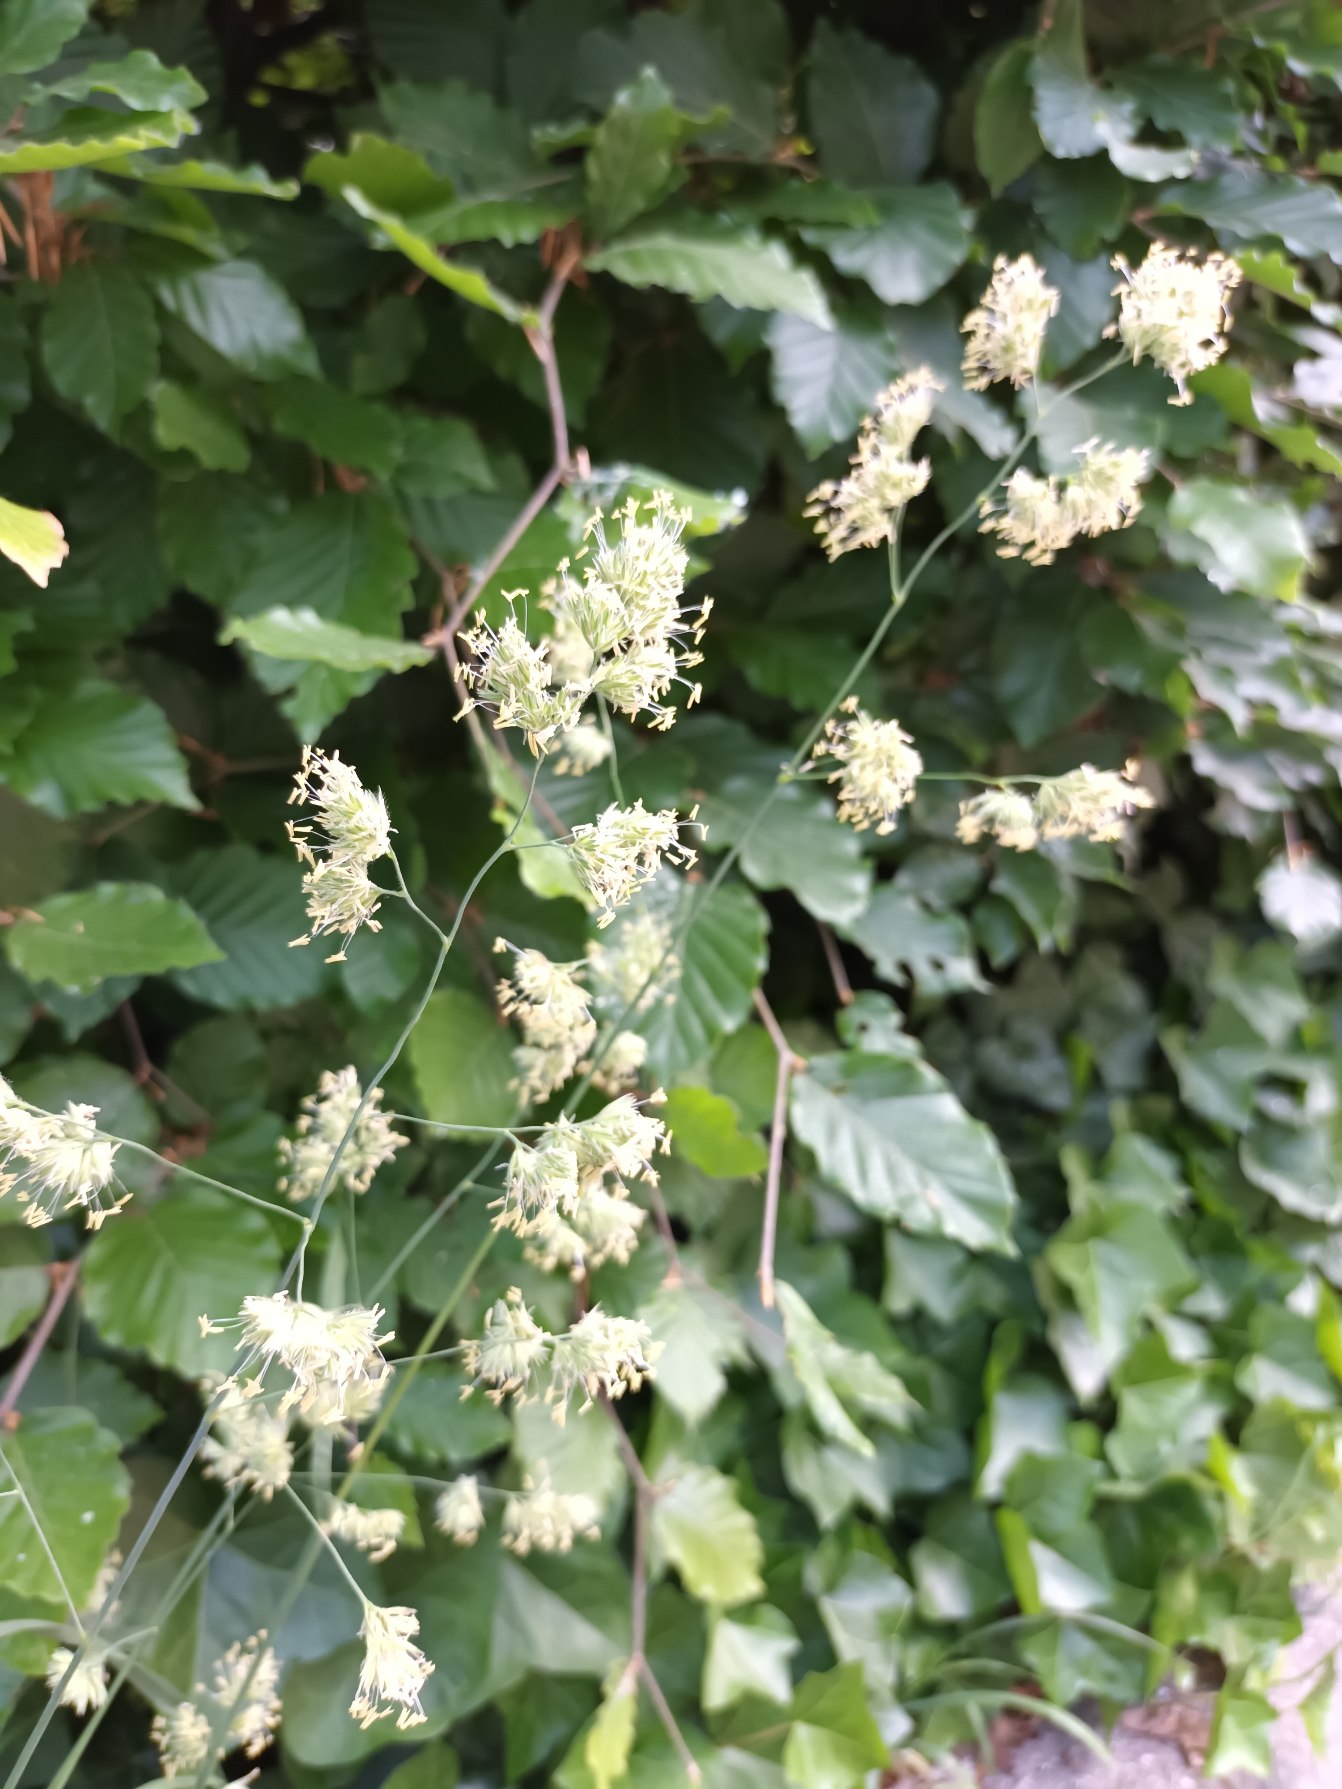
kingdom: Plantae
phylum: Tracheophyta
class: Liliopsida
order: Poales
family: Poaceae
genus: Dactylis
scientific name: Dactylis glomerata
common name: Almindelig hundegræs
